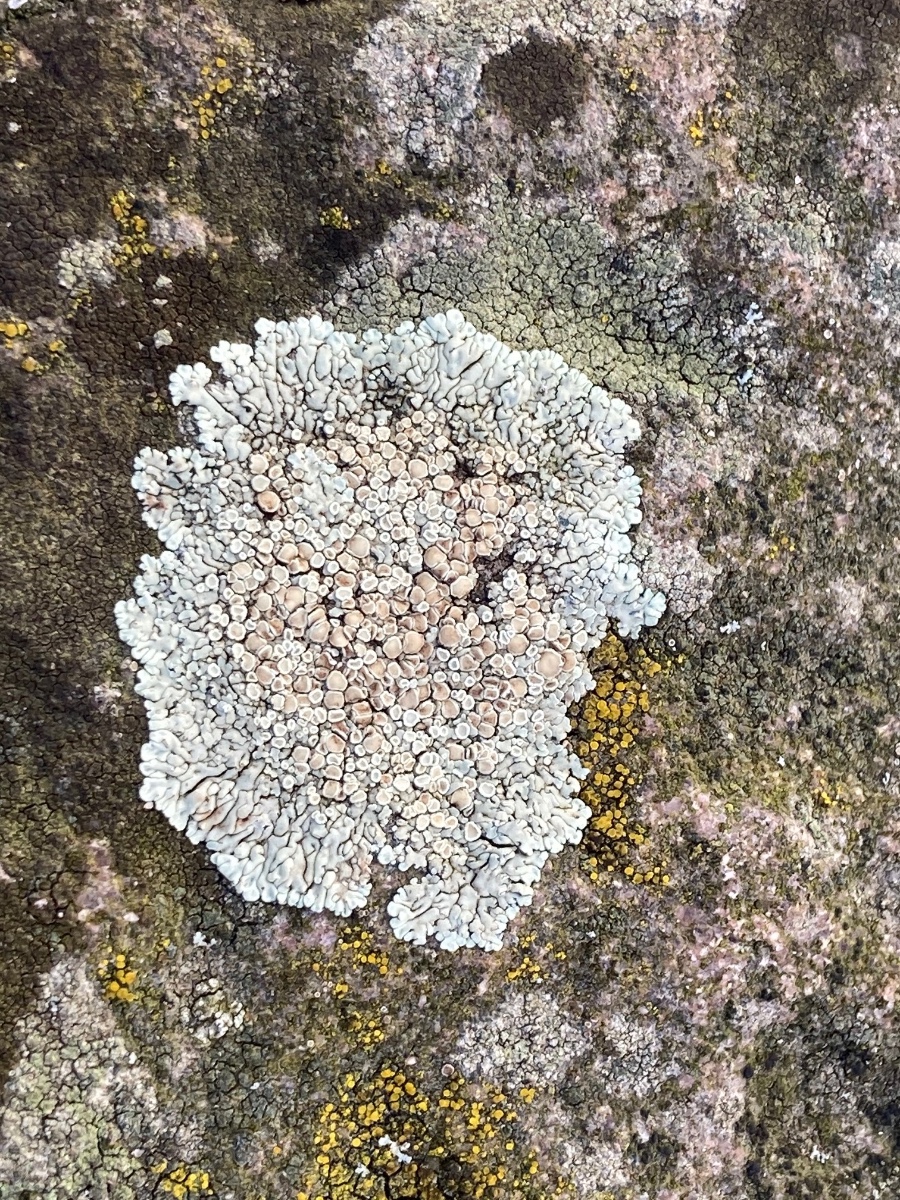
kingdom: Fungi
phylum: Ascomycota
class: Lecanoromycetes
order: Lecanorales
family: Lecanoraceae
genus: Protoparmeliopsis
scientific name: Protoparmeliopsis muralis
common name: randfliget kantskivelav
